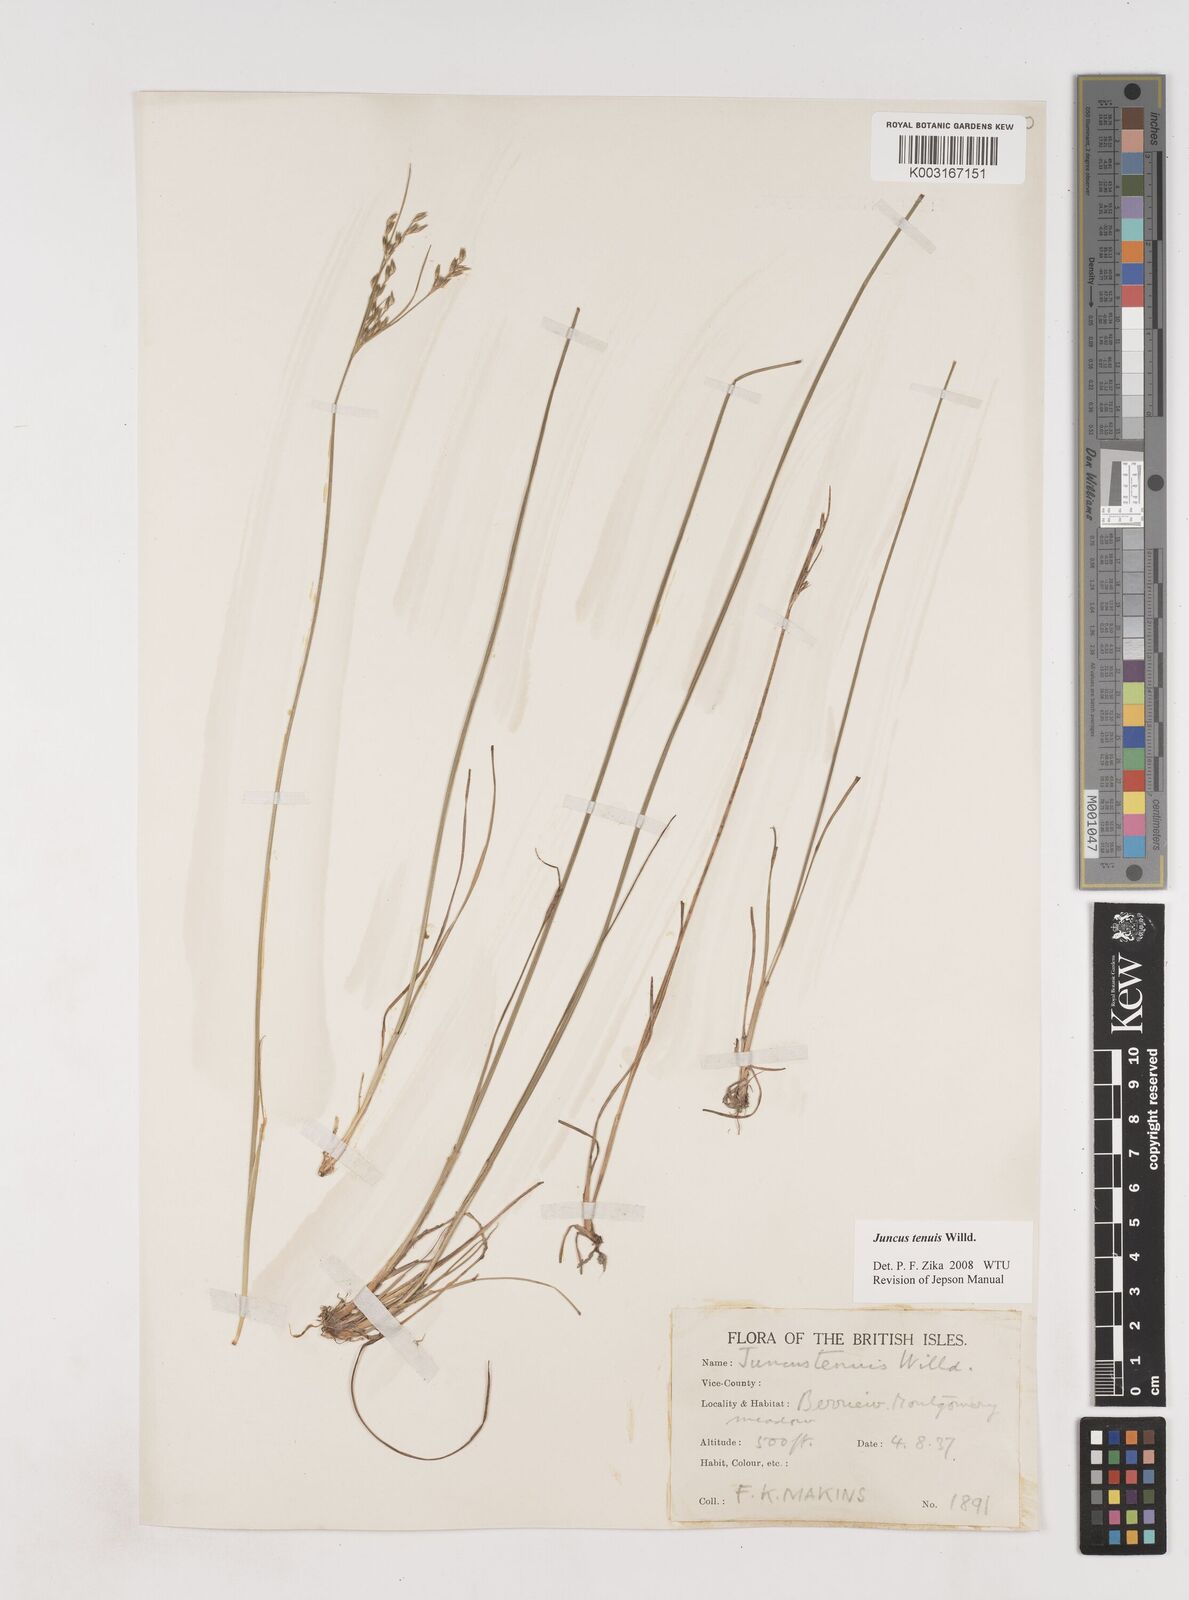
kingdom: Plantae
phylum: Tracheophyta
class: Liliopsida
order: Poales
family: Juncaceae
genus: Juncus
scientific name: Juncus tenuis
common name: Slender rush
